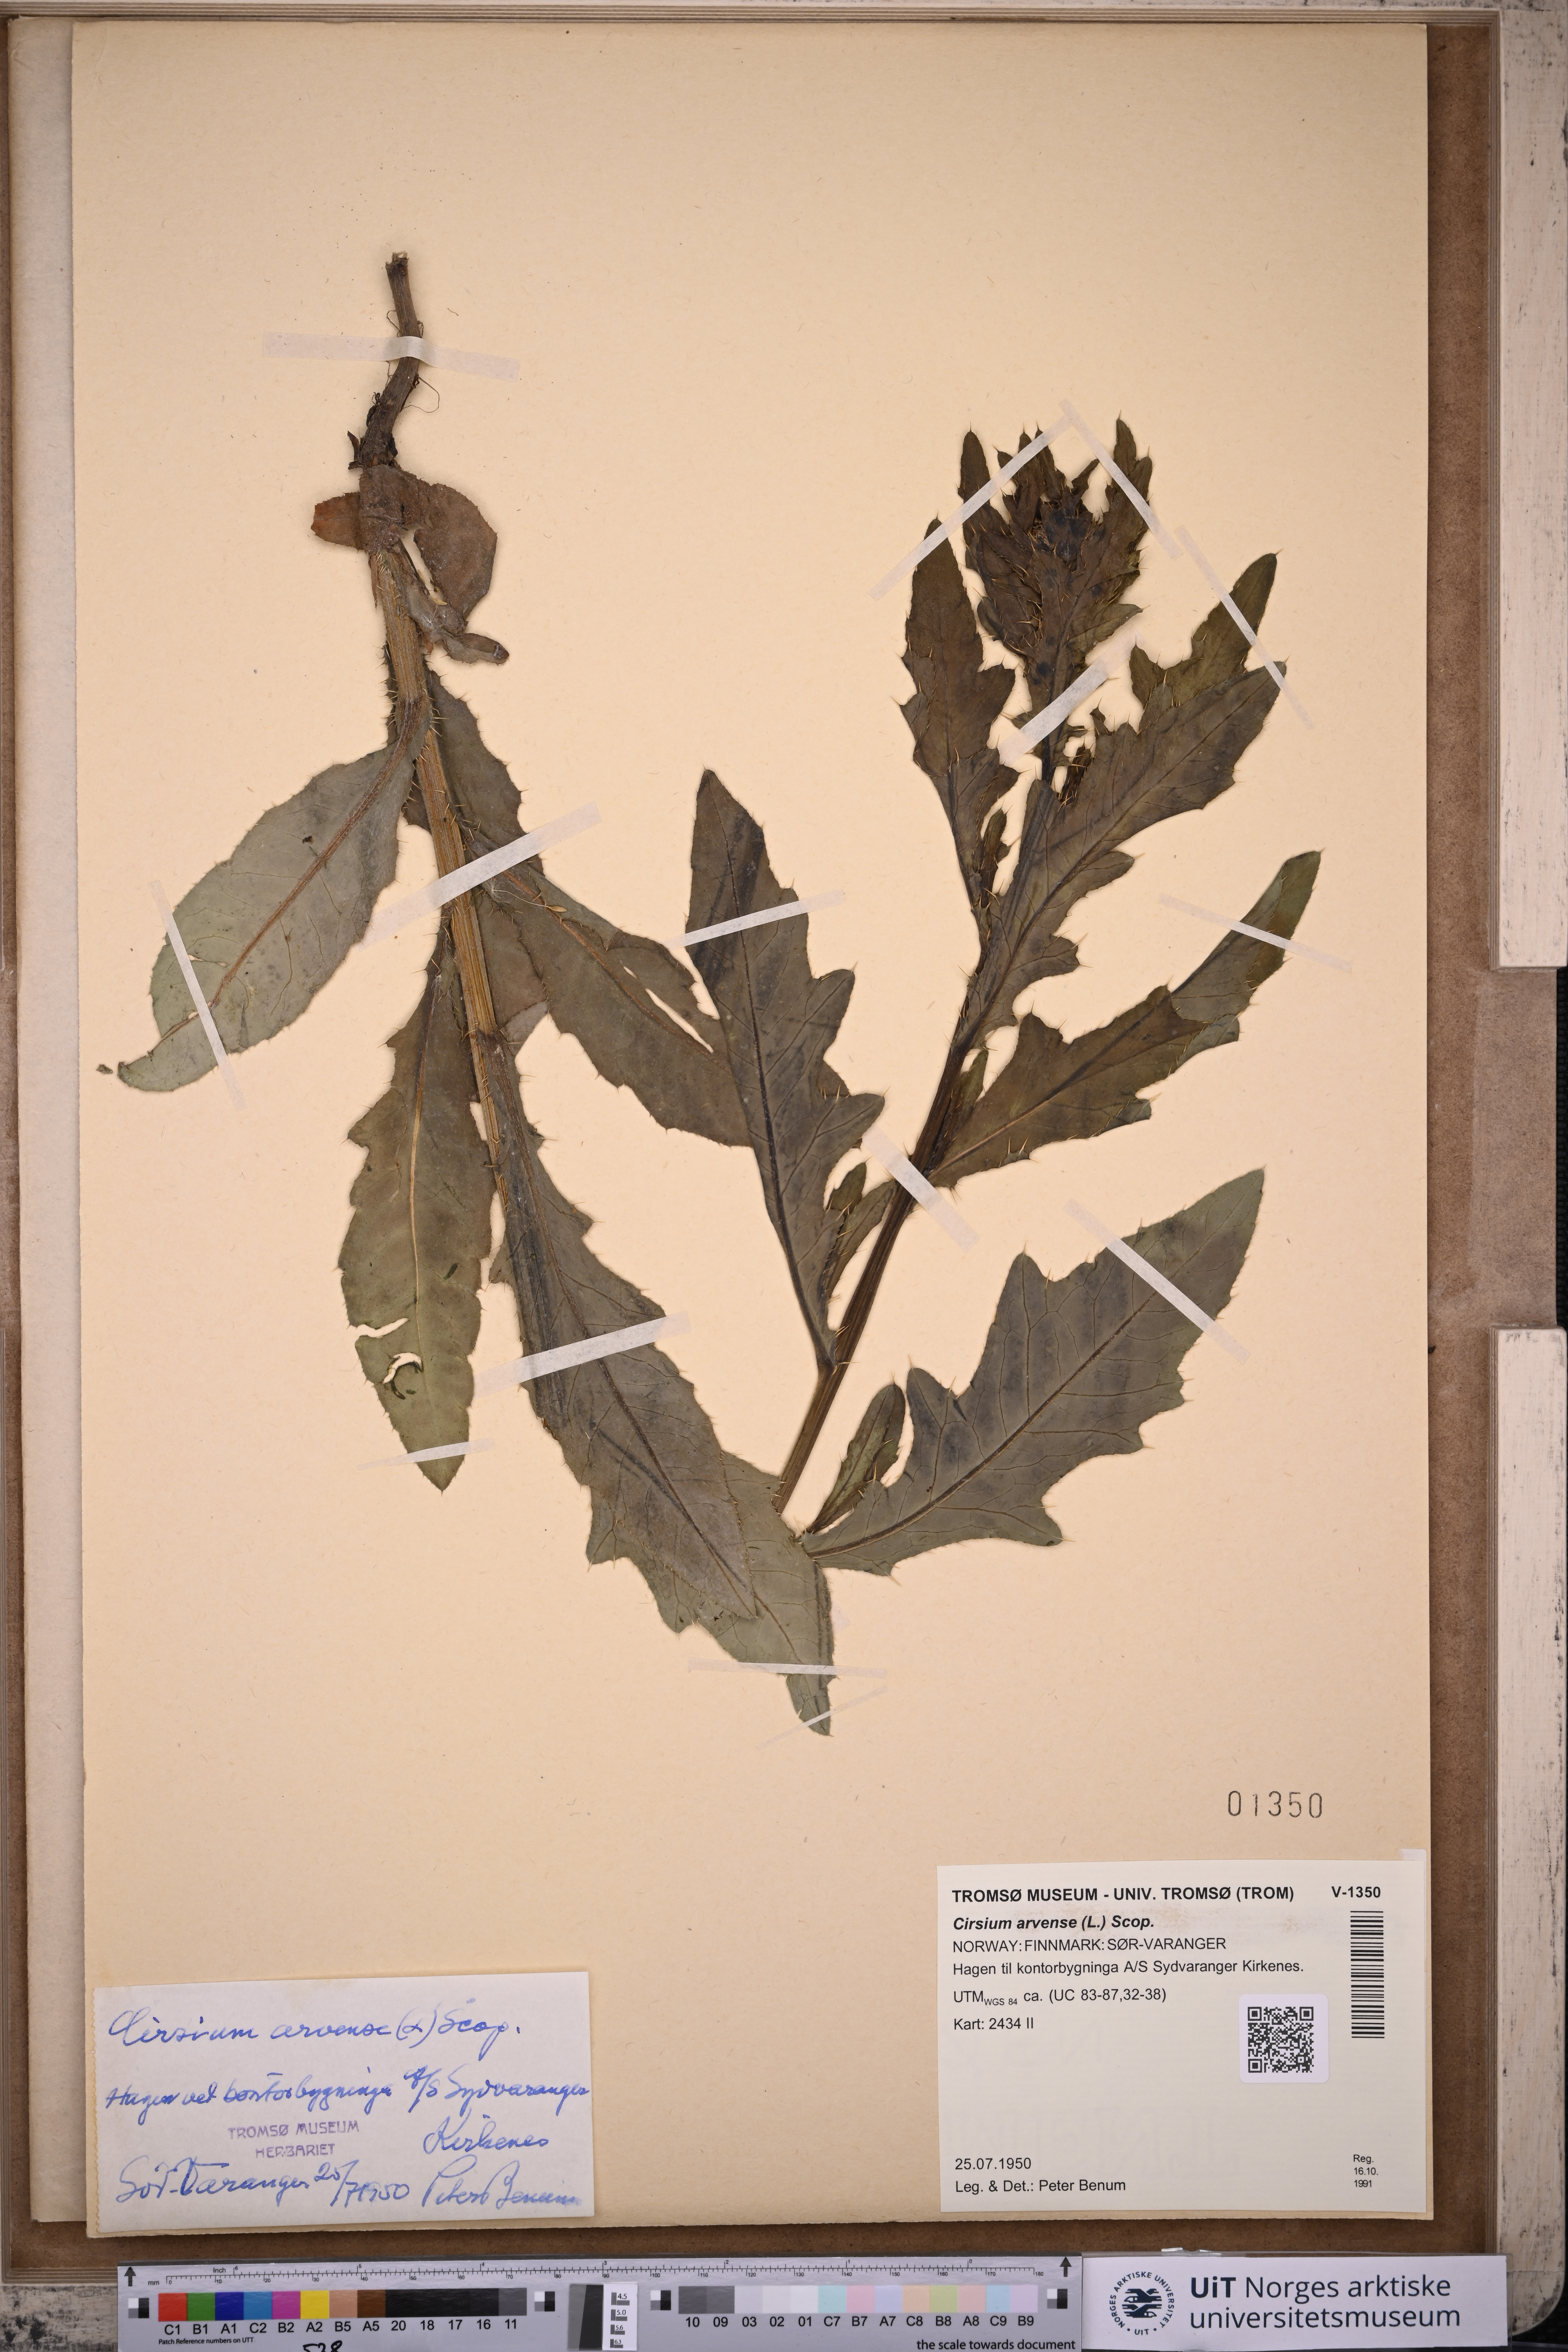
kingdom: Plantae
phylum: Tracheophyta
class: Magnoliopsida
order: Asterales
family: Asteraceae
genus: Cirsium
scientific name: Cirsium arvense
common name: Creeping thistle
